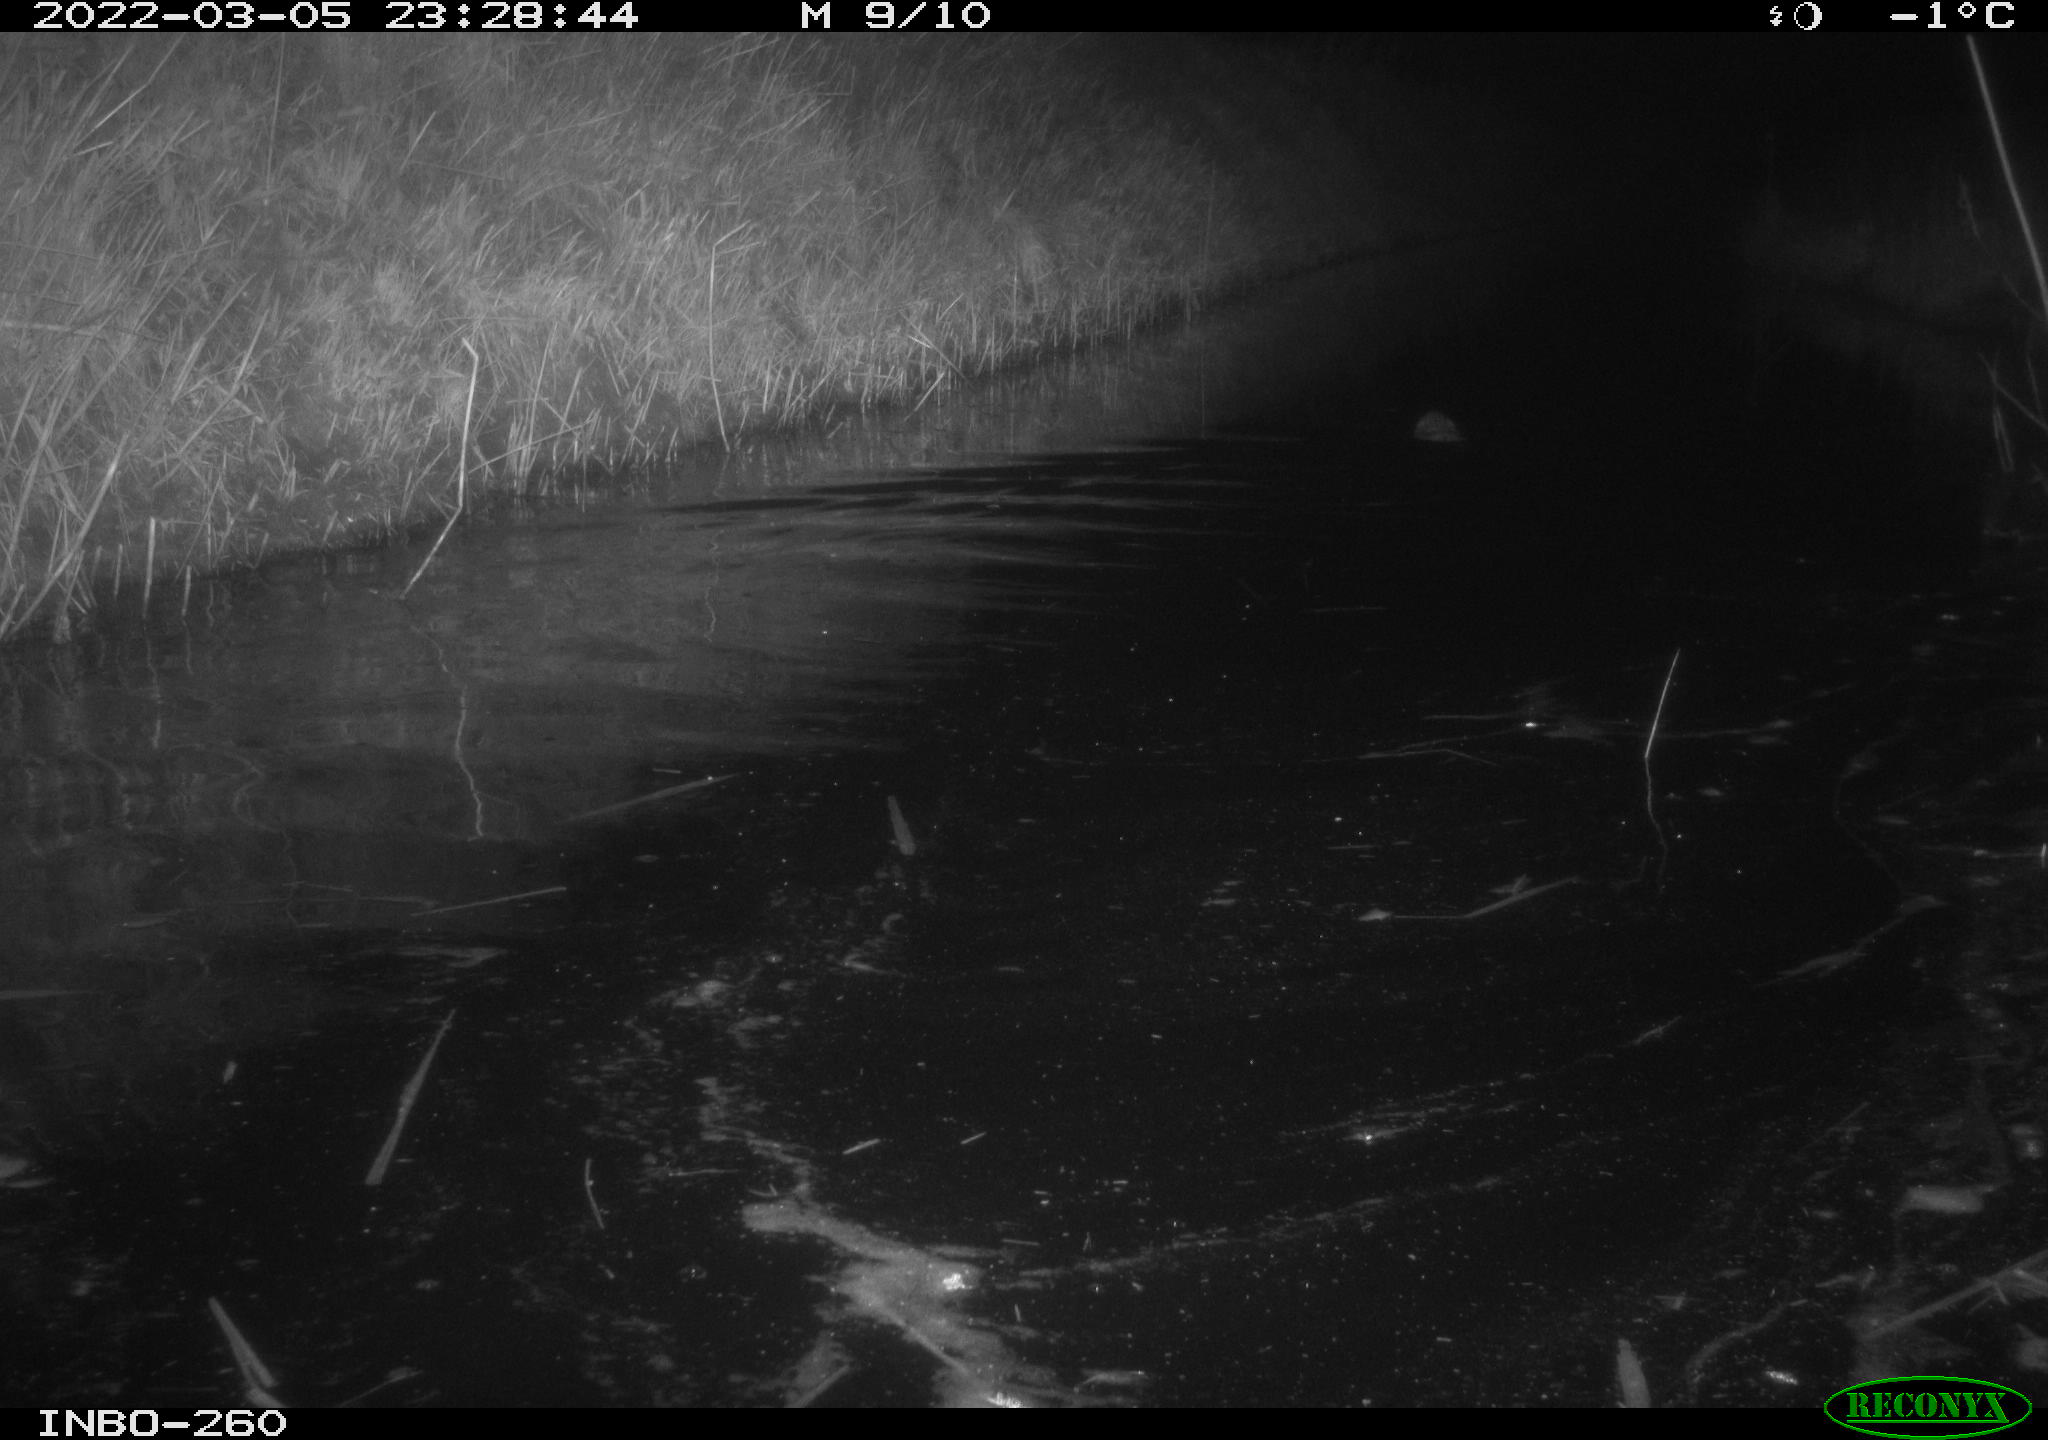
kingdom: Animalia
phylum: Chordata
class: Mammalia
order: Rodentia
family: Cricetidae
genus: Ondatra
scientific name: Ondatra zibethicus
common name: Muskrat
